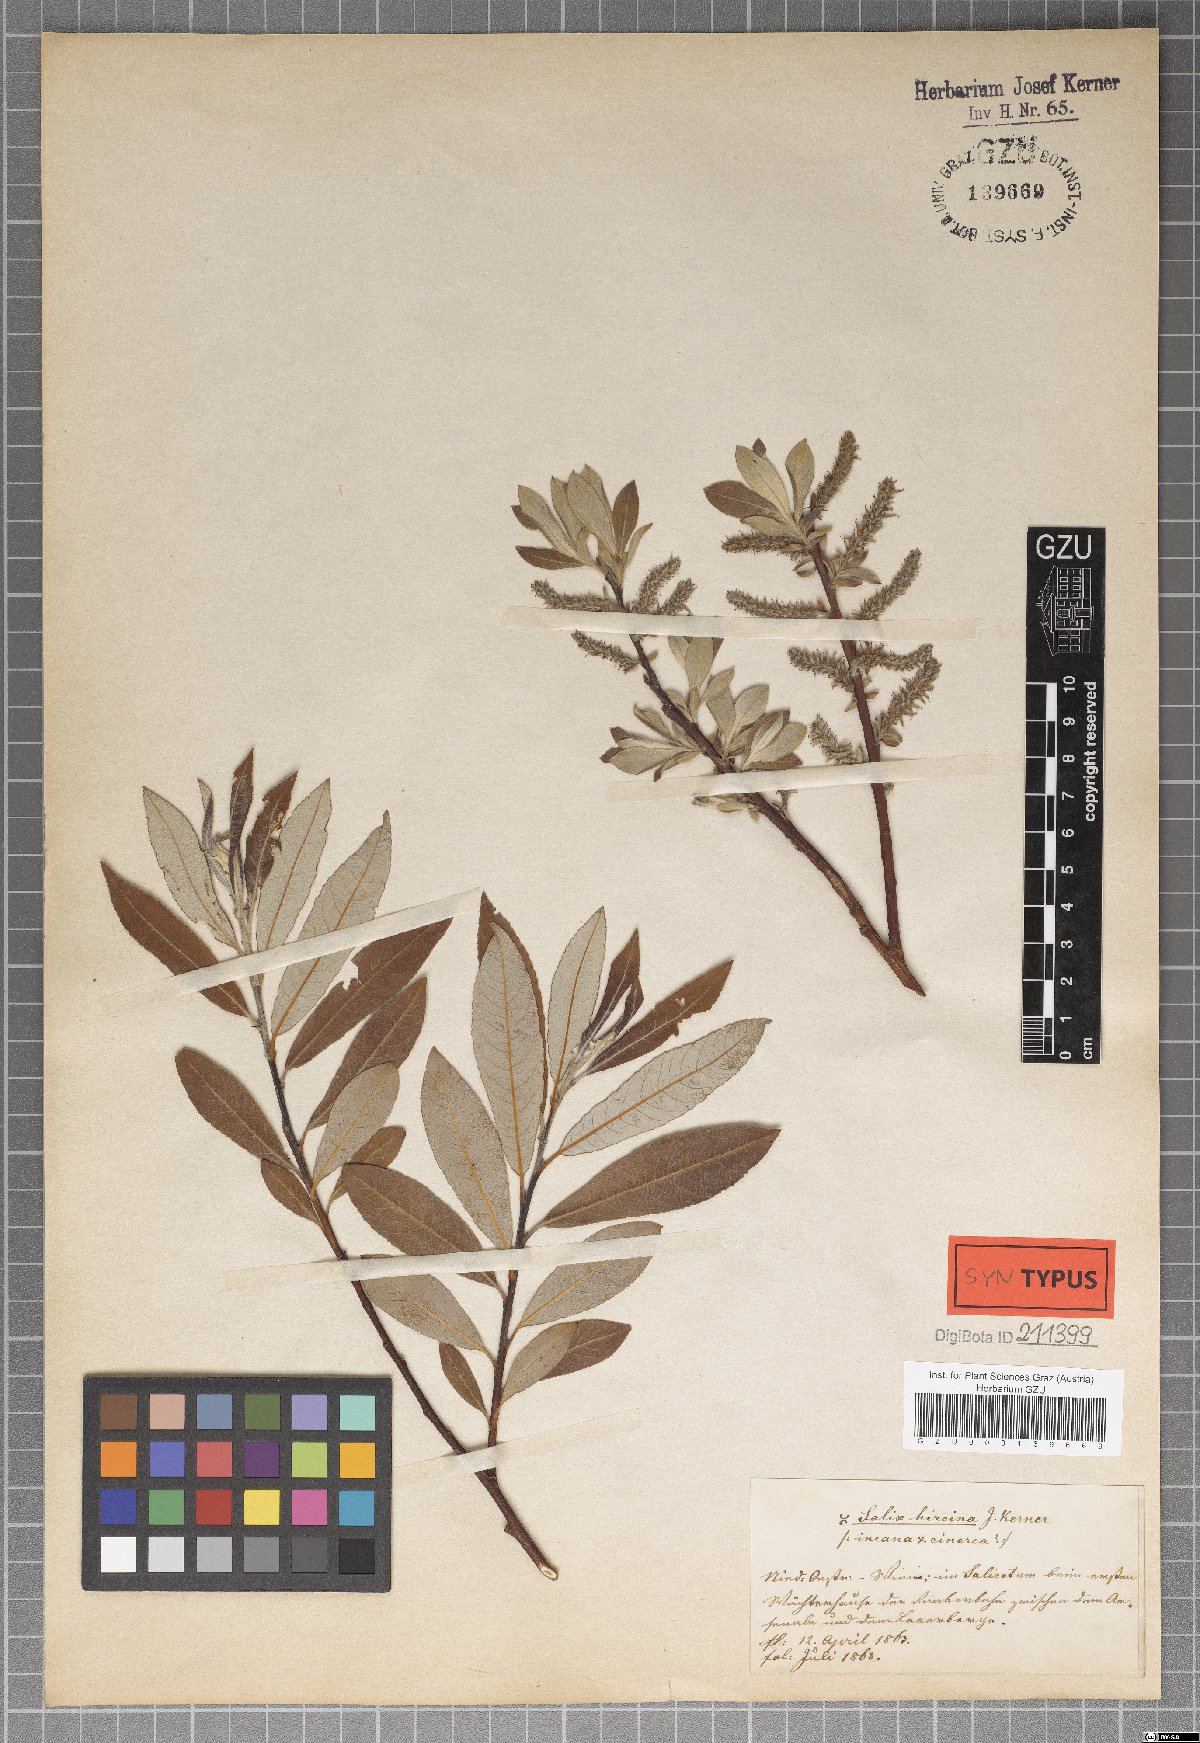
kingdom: Plantae
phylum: Tracheophyta
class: Magnoliopsida
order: Malpighiales
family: Salicaceae
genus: Salix
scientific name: Salix eleagnos
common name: Elaeagnus willow
